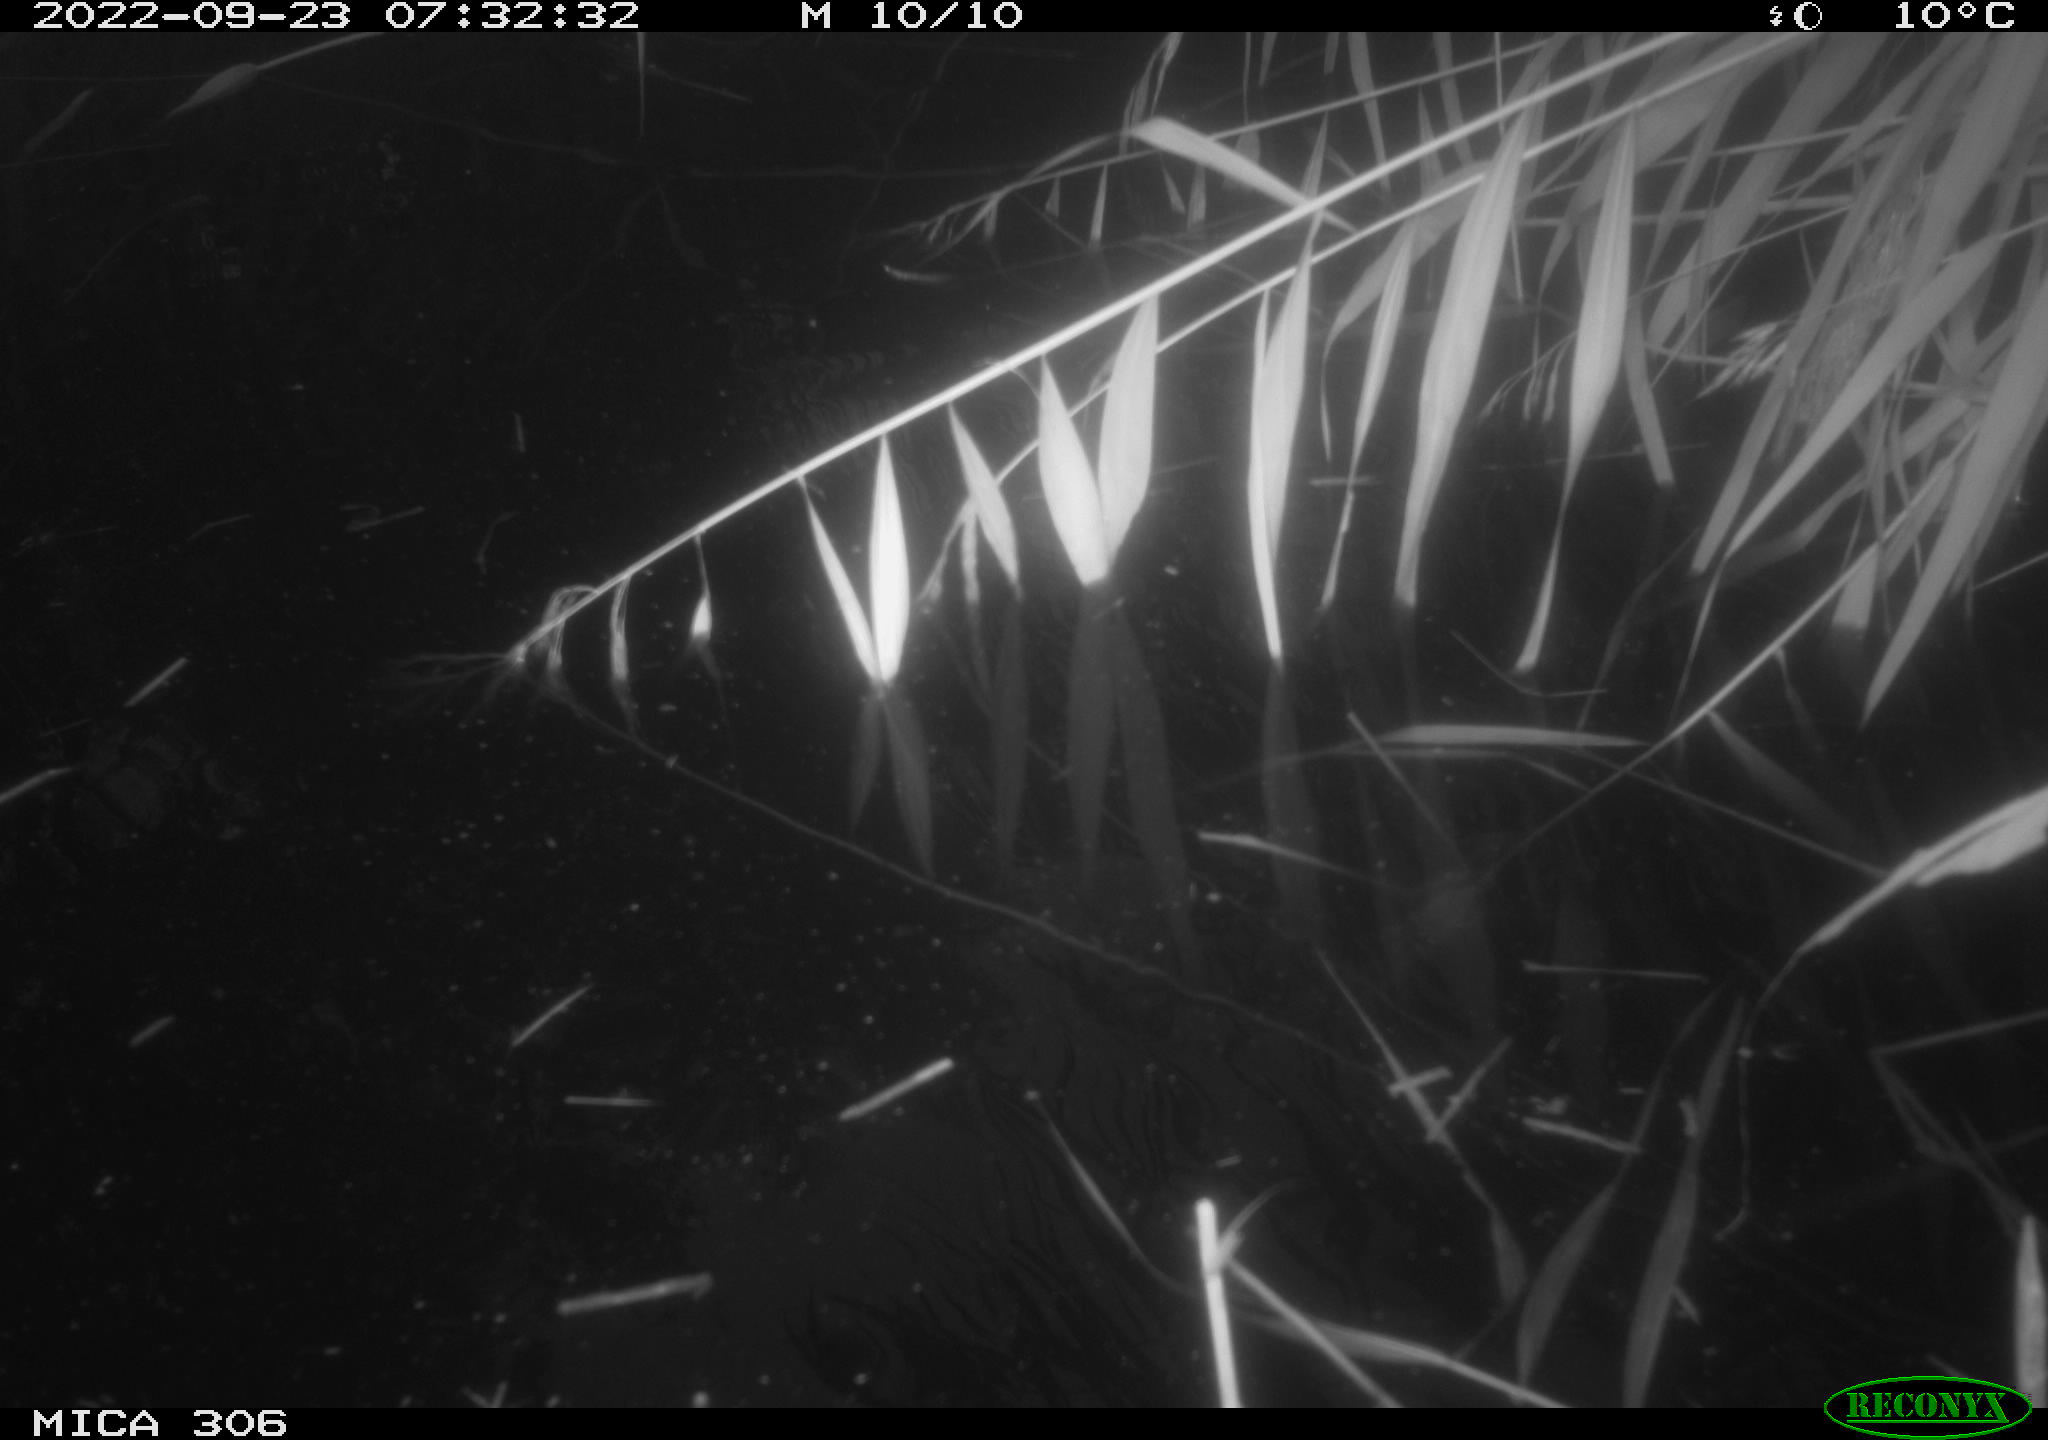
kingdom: Animalia
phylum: Chordata
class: Aves
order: Gruiformes
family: Rallidae
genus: Gallinula
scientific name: Gallinula chloropus
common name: Common moorhen
